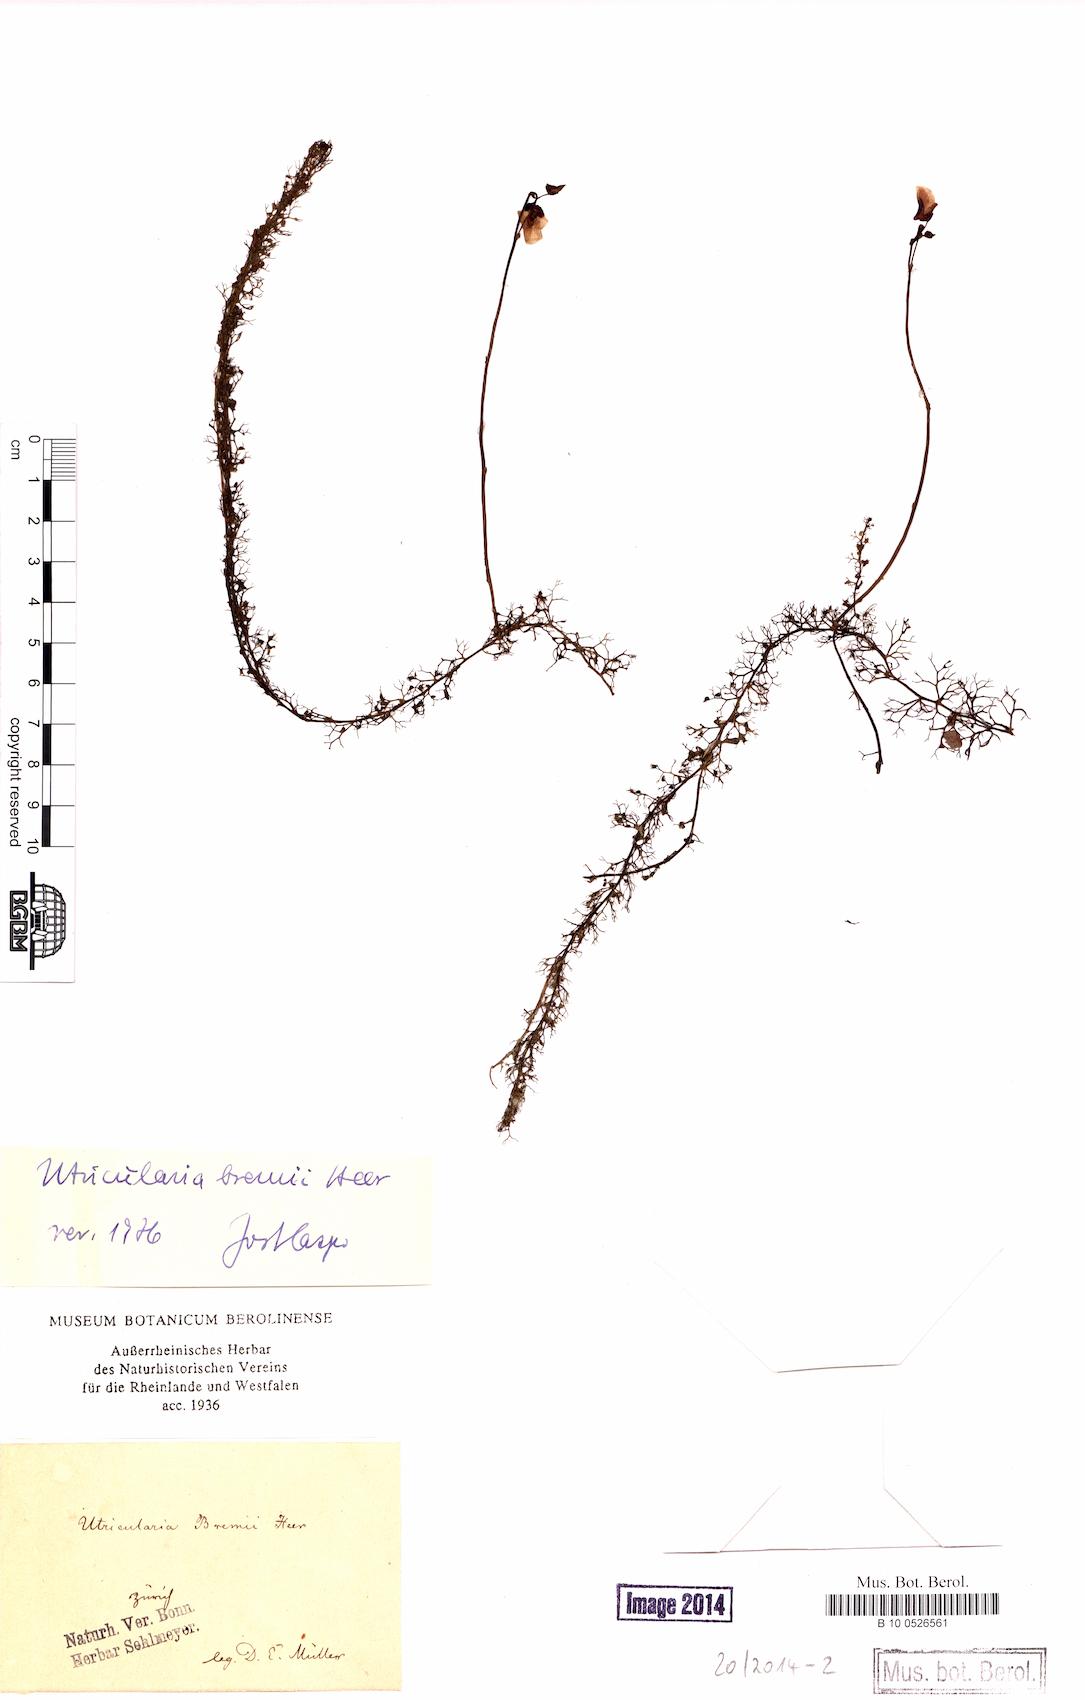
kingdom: Plantae
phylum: Tracheophyta
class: Magnoliopsida
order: Lamiales
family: Lentibulariaceae
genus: Utricularia
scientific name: Utricularia bremii
